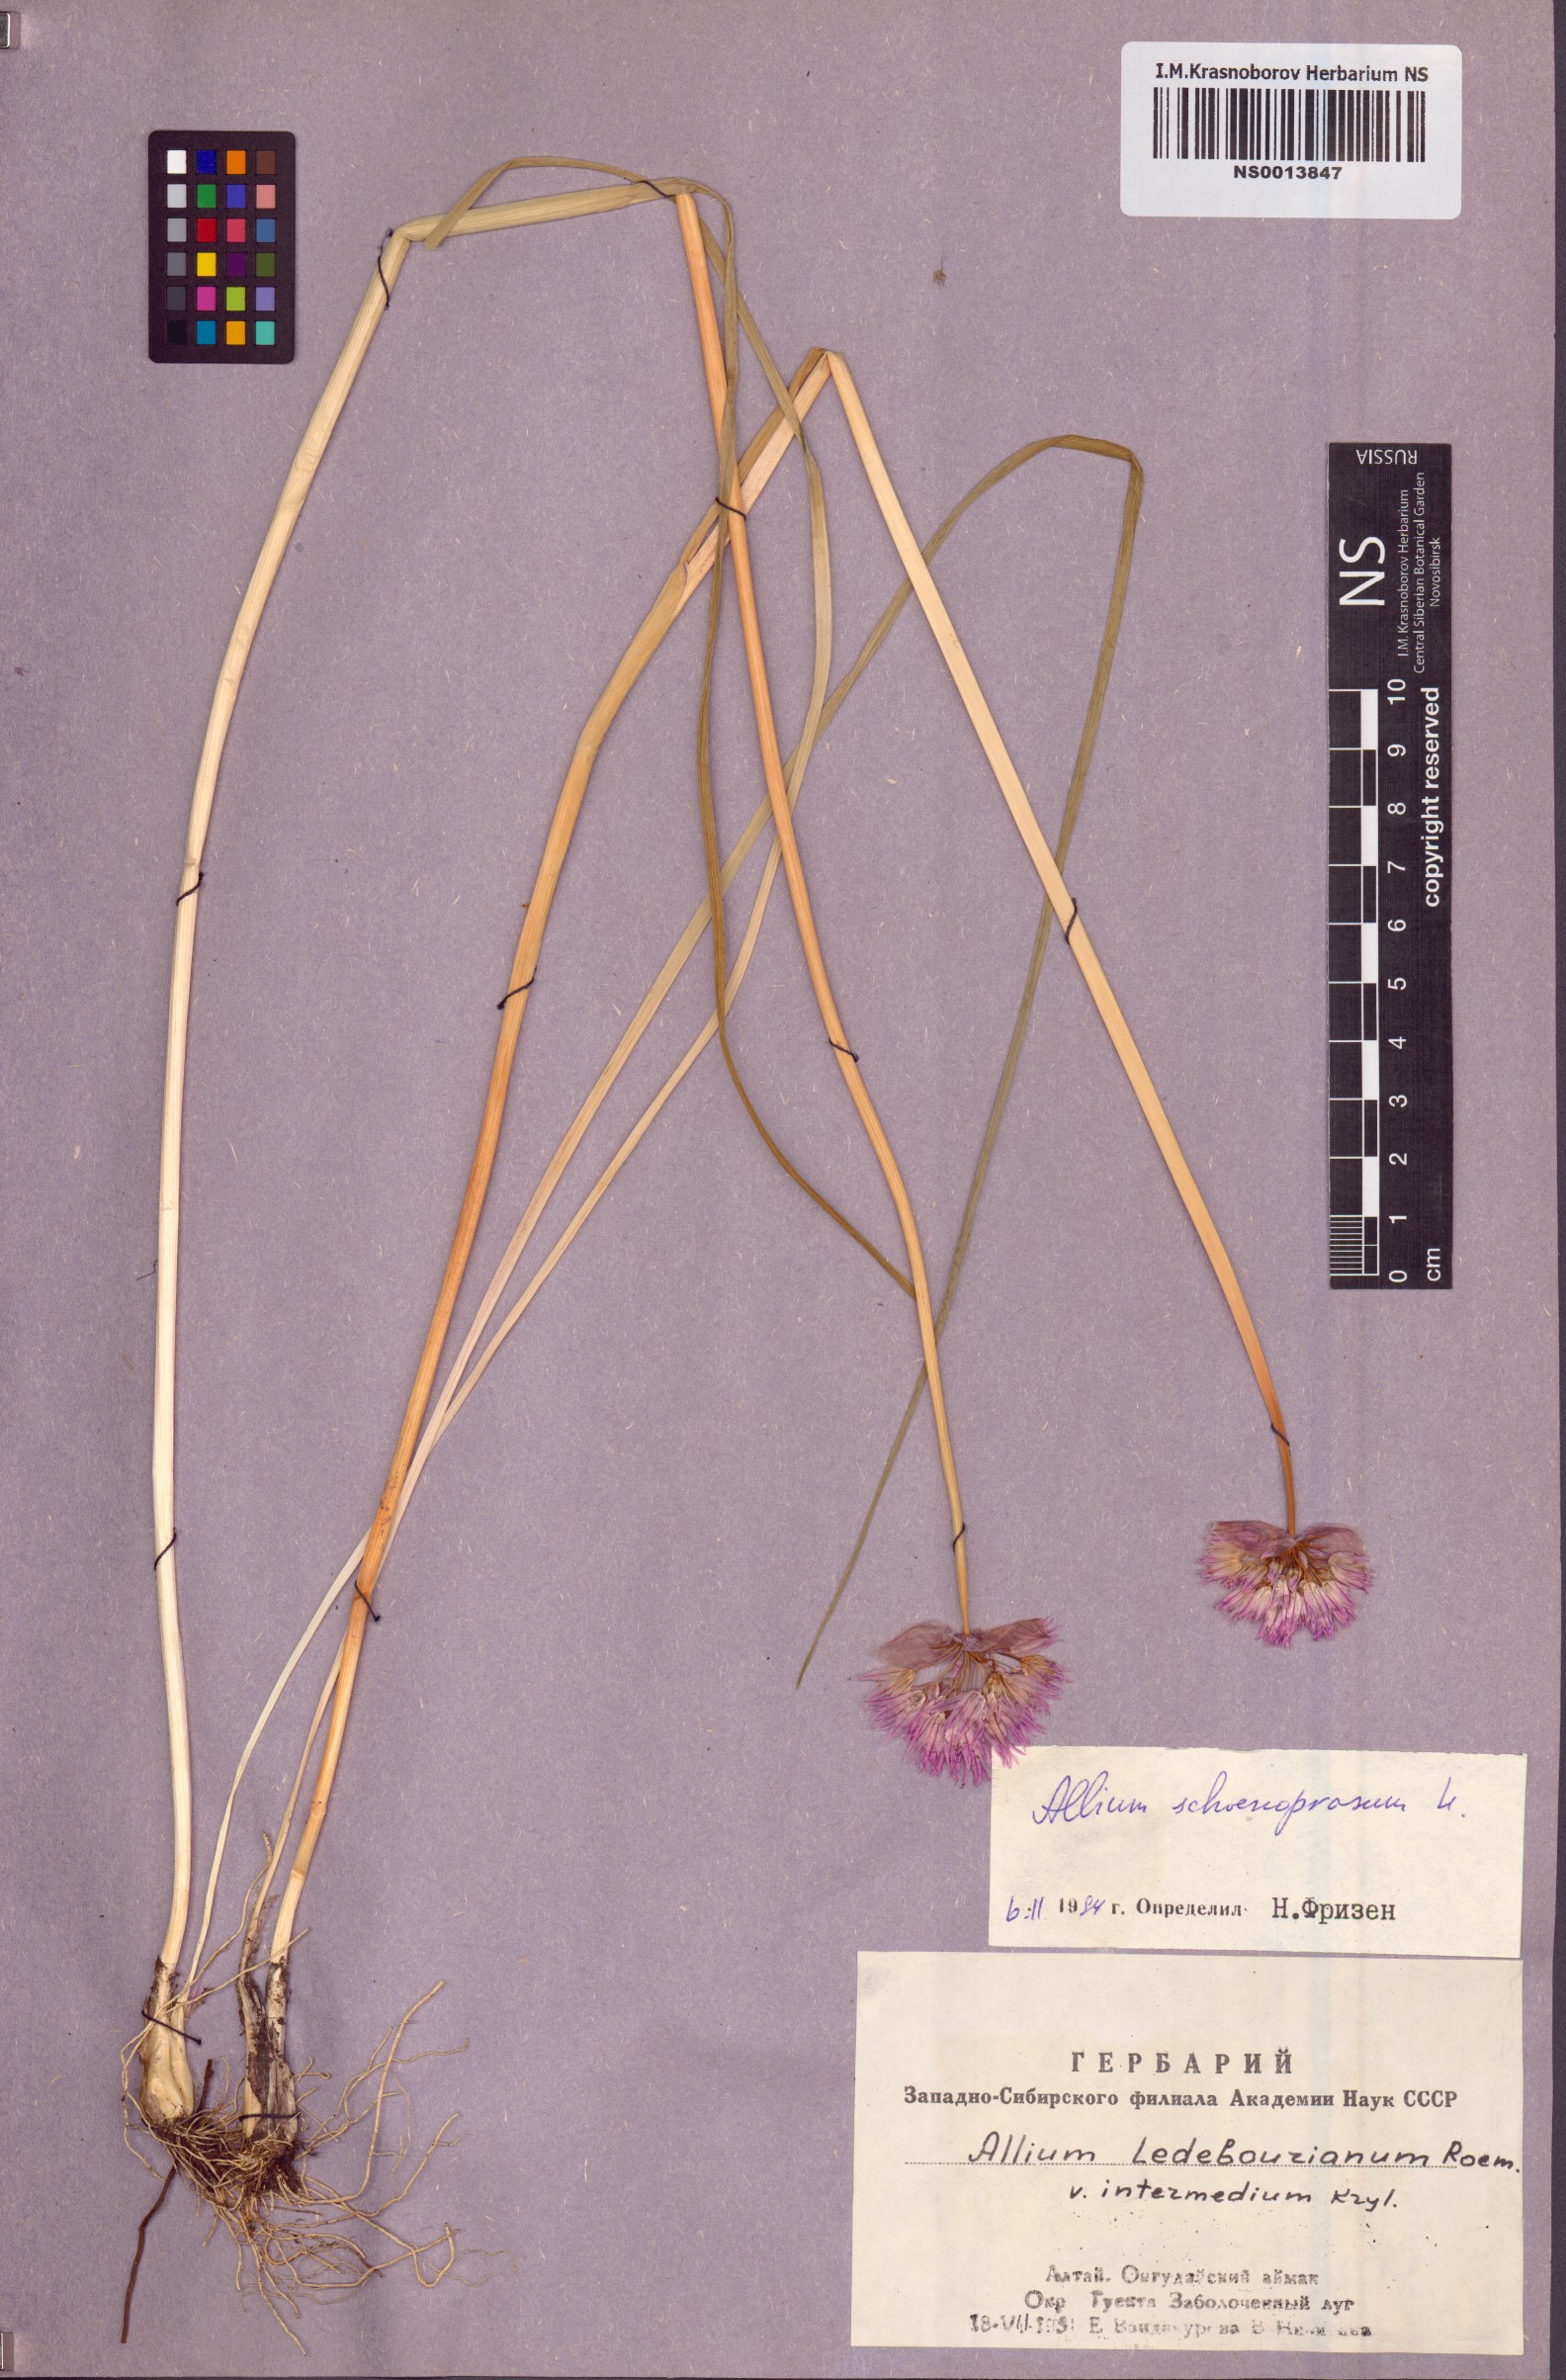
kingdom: Plantae
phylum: Tracheophyta
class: Liliopsida
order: Asparagales
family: Amaryllidaceae
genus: Allium
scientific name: Allium schoenoprasum
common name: Chives
